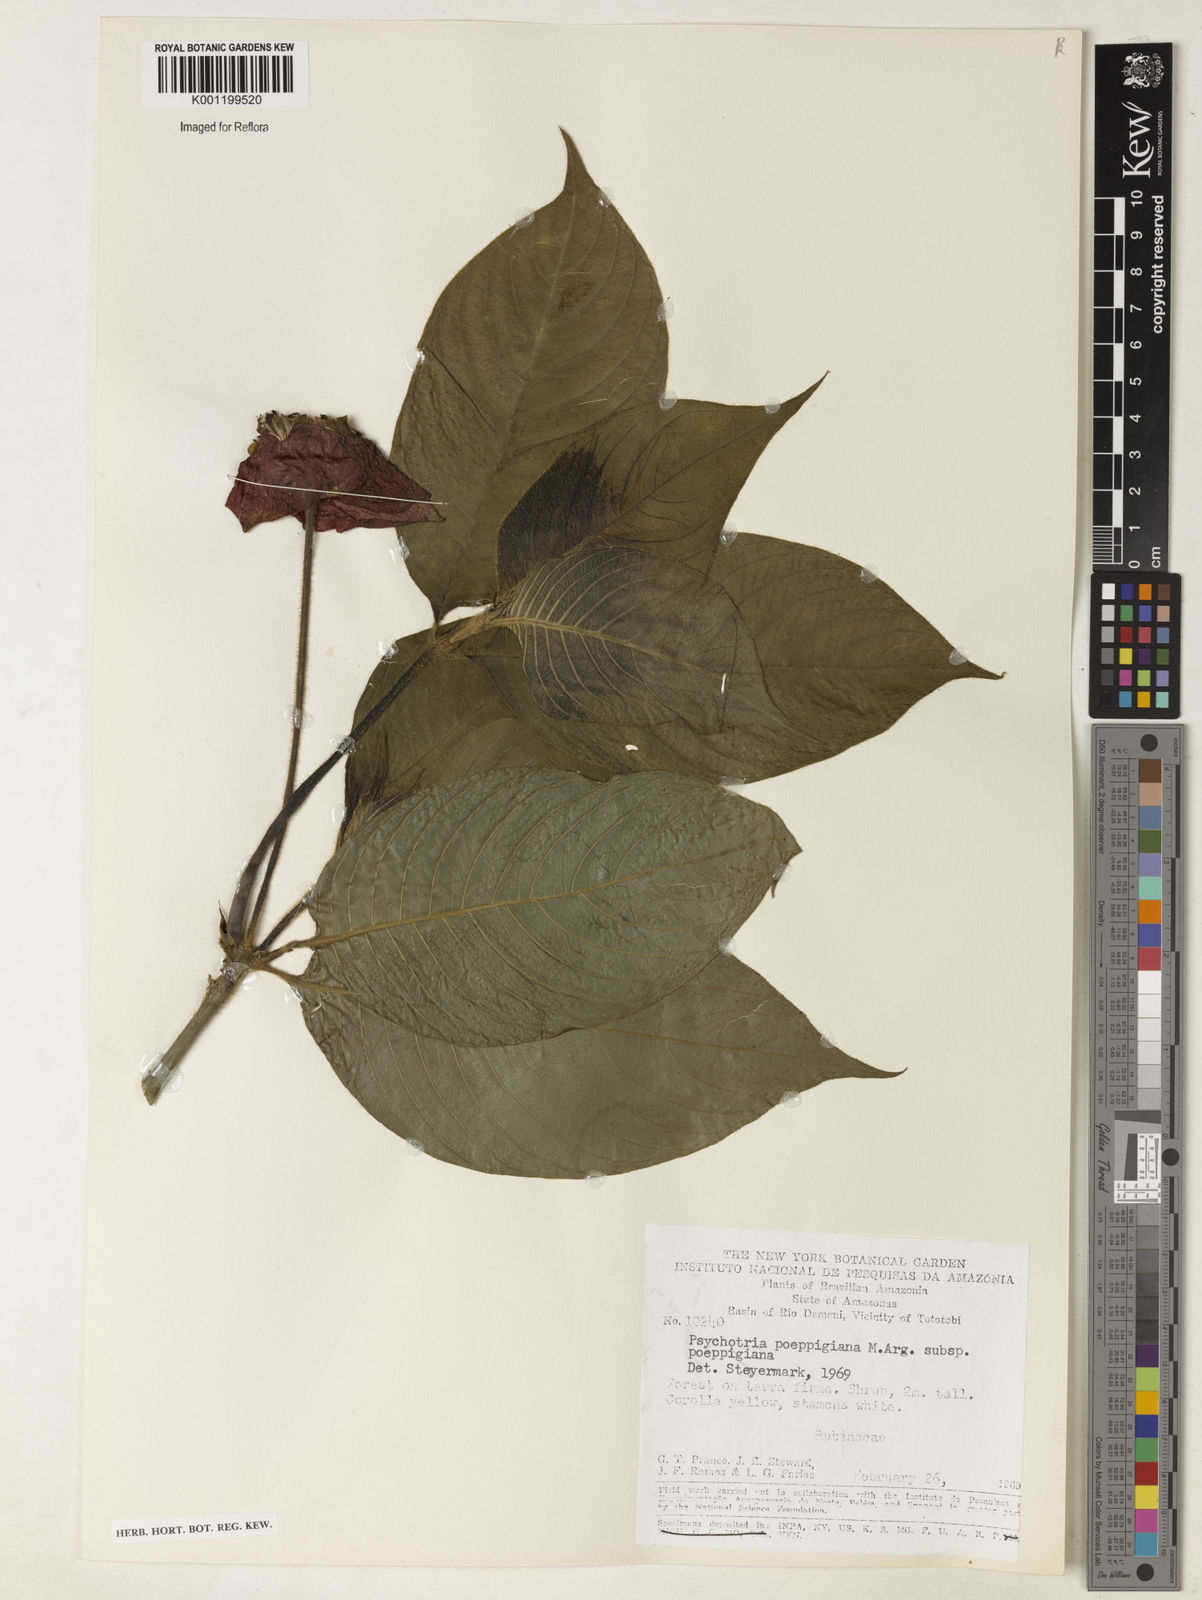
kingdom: Plantae
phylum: Tracheophyta
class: Magnoliopsida
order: Gentianales
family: Rubiaceae
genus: Psychotria
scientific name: Psychotria
